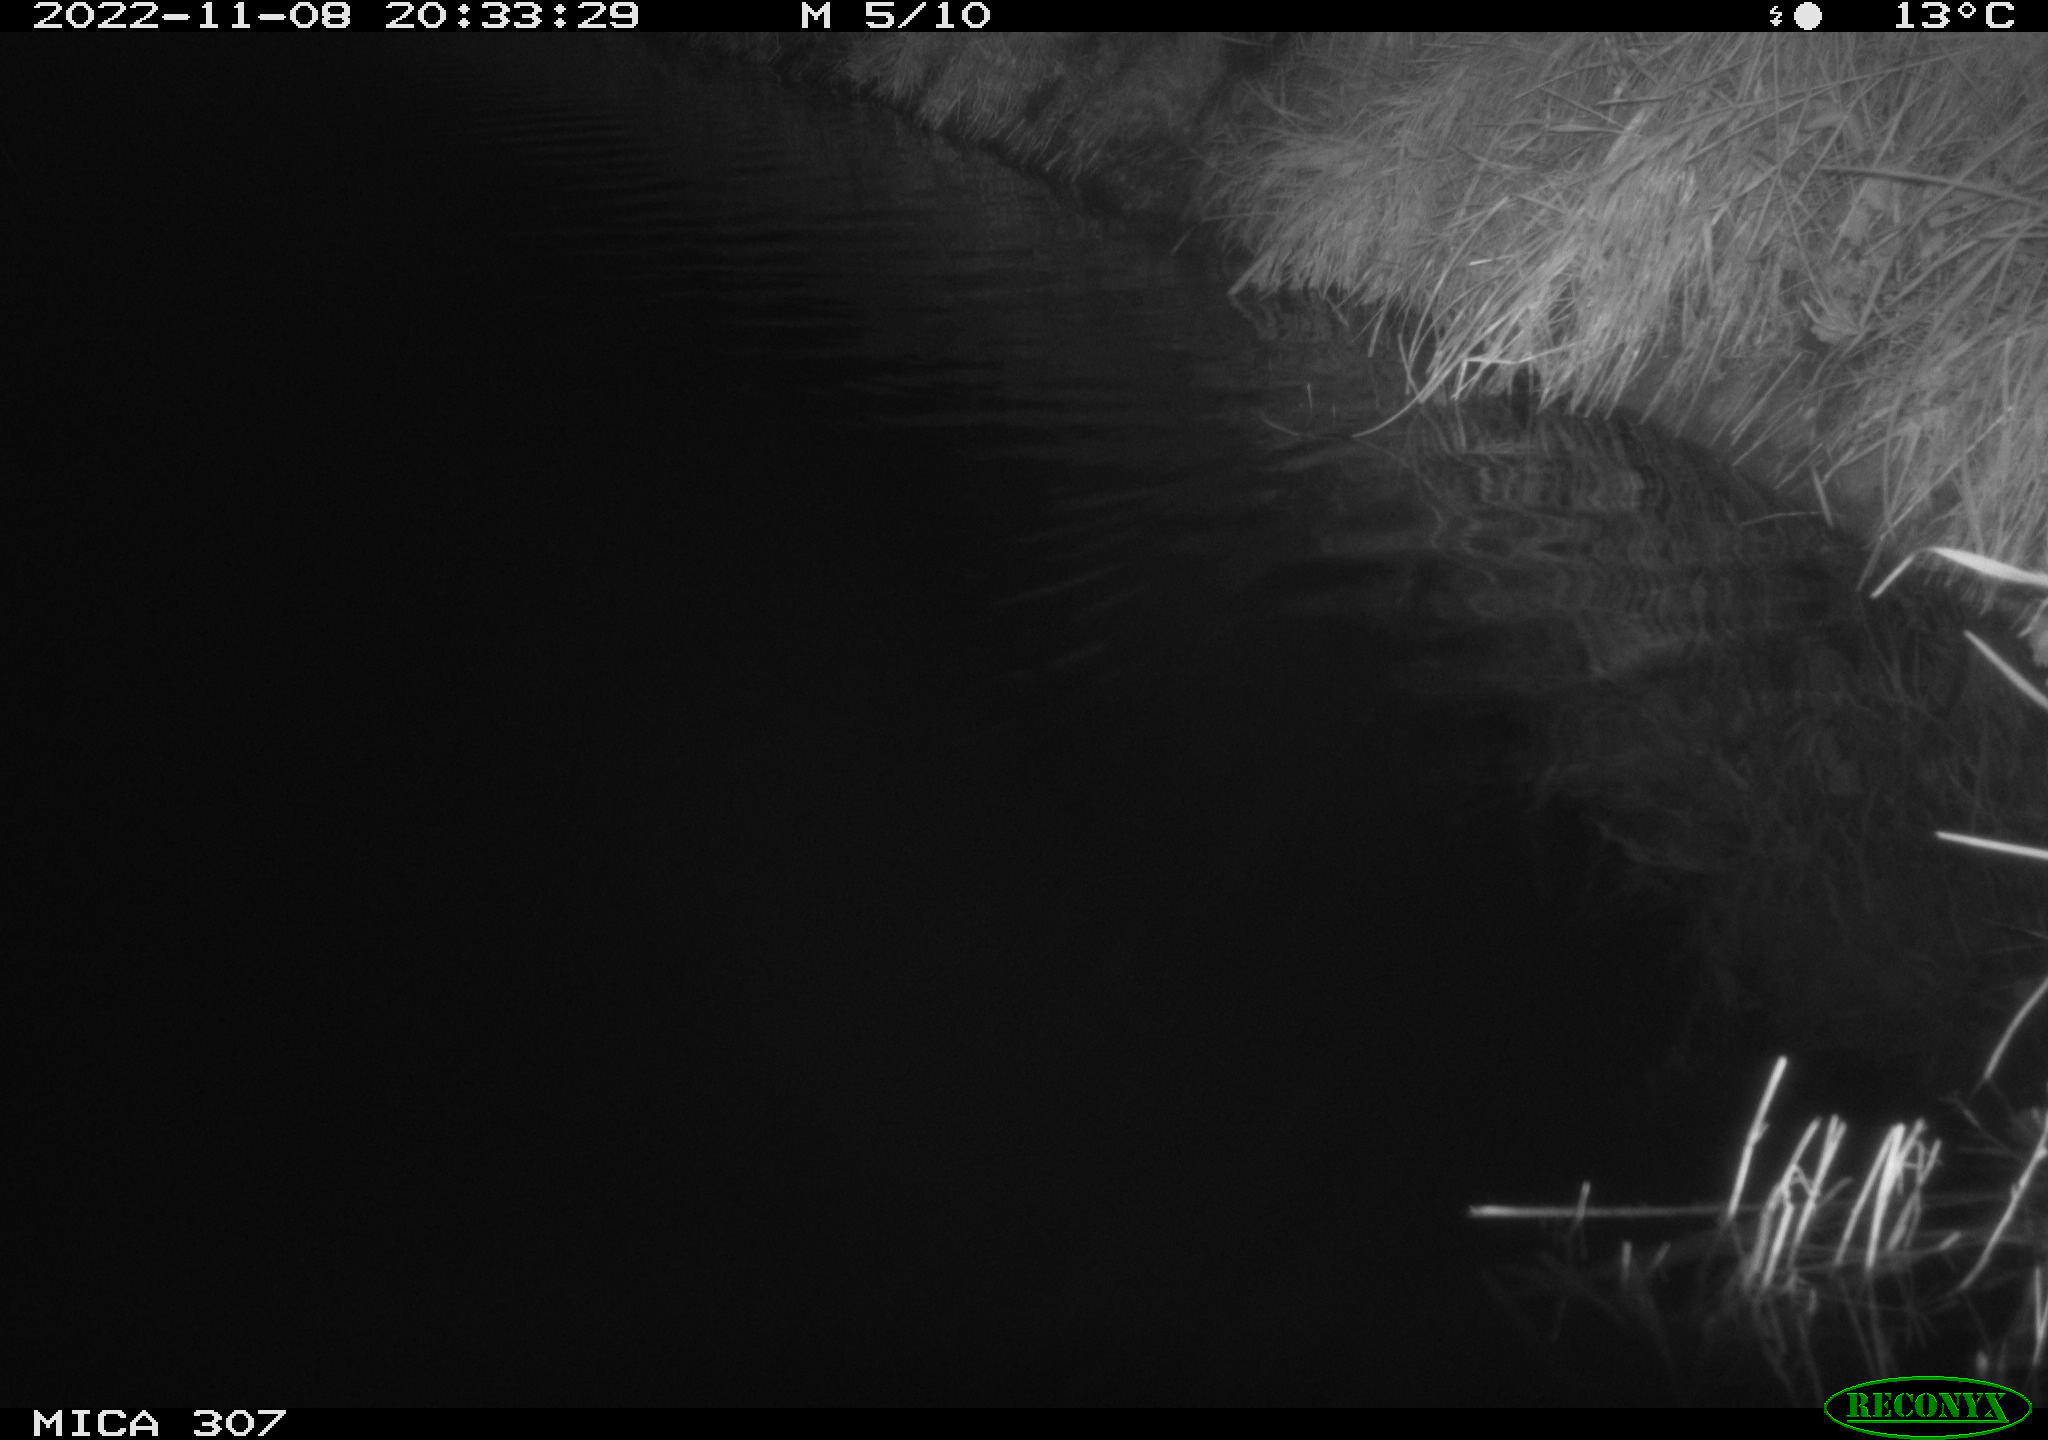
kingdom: Animalia
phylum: Chordata
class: Aves
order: Anseriformes
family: Anatidae
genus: Anas
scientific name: Anas
